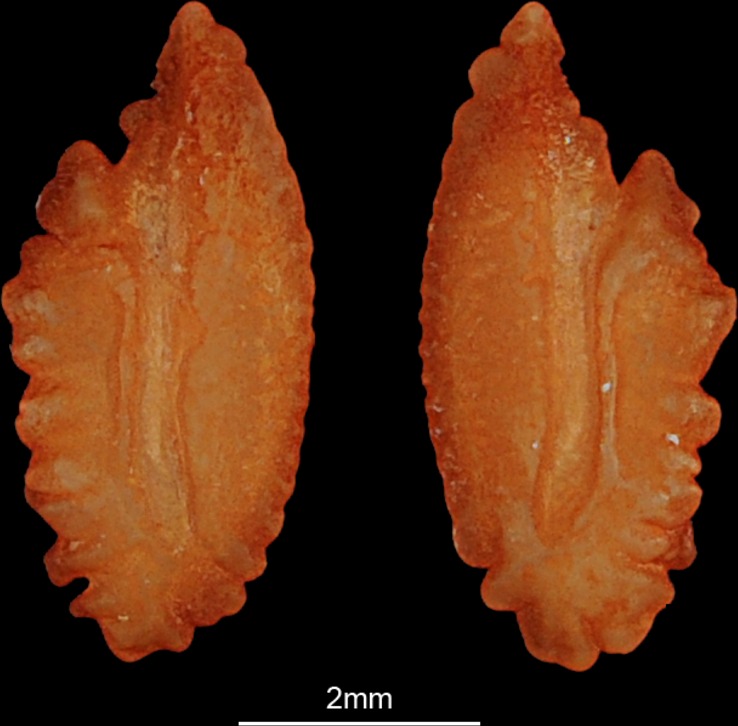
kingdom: Animalia
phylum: Chordata
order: Perciformes
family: Percidae
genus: Perca
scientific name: Perca fluviatilis
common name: Perch
